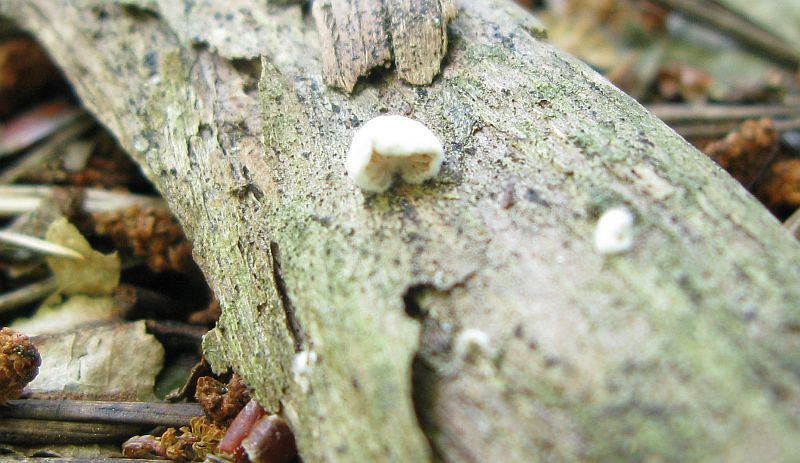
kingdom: Fungi
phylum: Basidiomycota
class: Agaricomycetes
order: Agaricales
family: Crepidotaceae
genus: Crepidotus
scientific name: Crepidotus cesatii
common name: almindelig muslingesvamp
